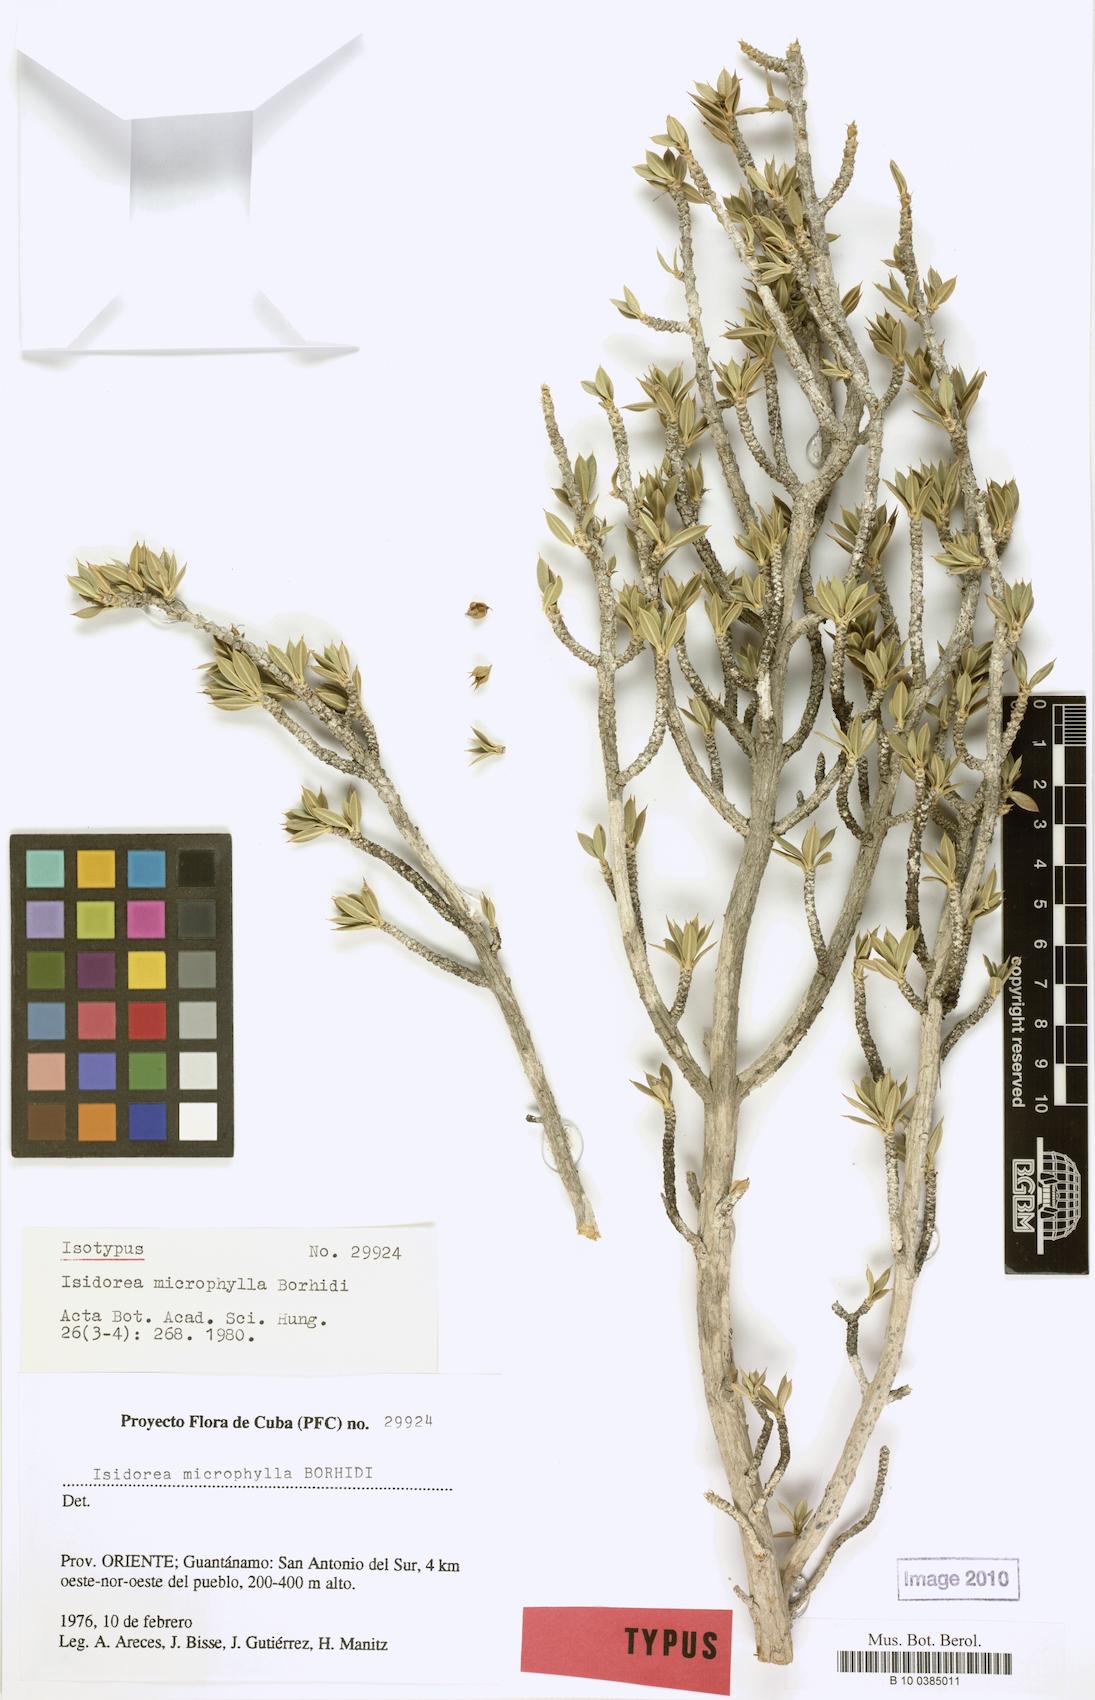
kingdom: Plantae
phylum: Tracheophyta
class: Magnoliopsida
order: Gentianales
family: Rubiaceae
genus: Isidorea
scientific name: Isidorea microphylla
